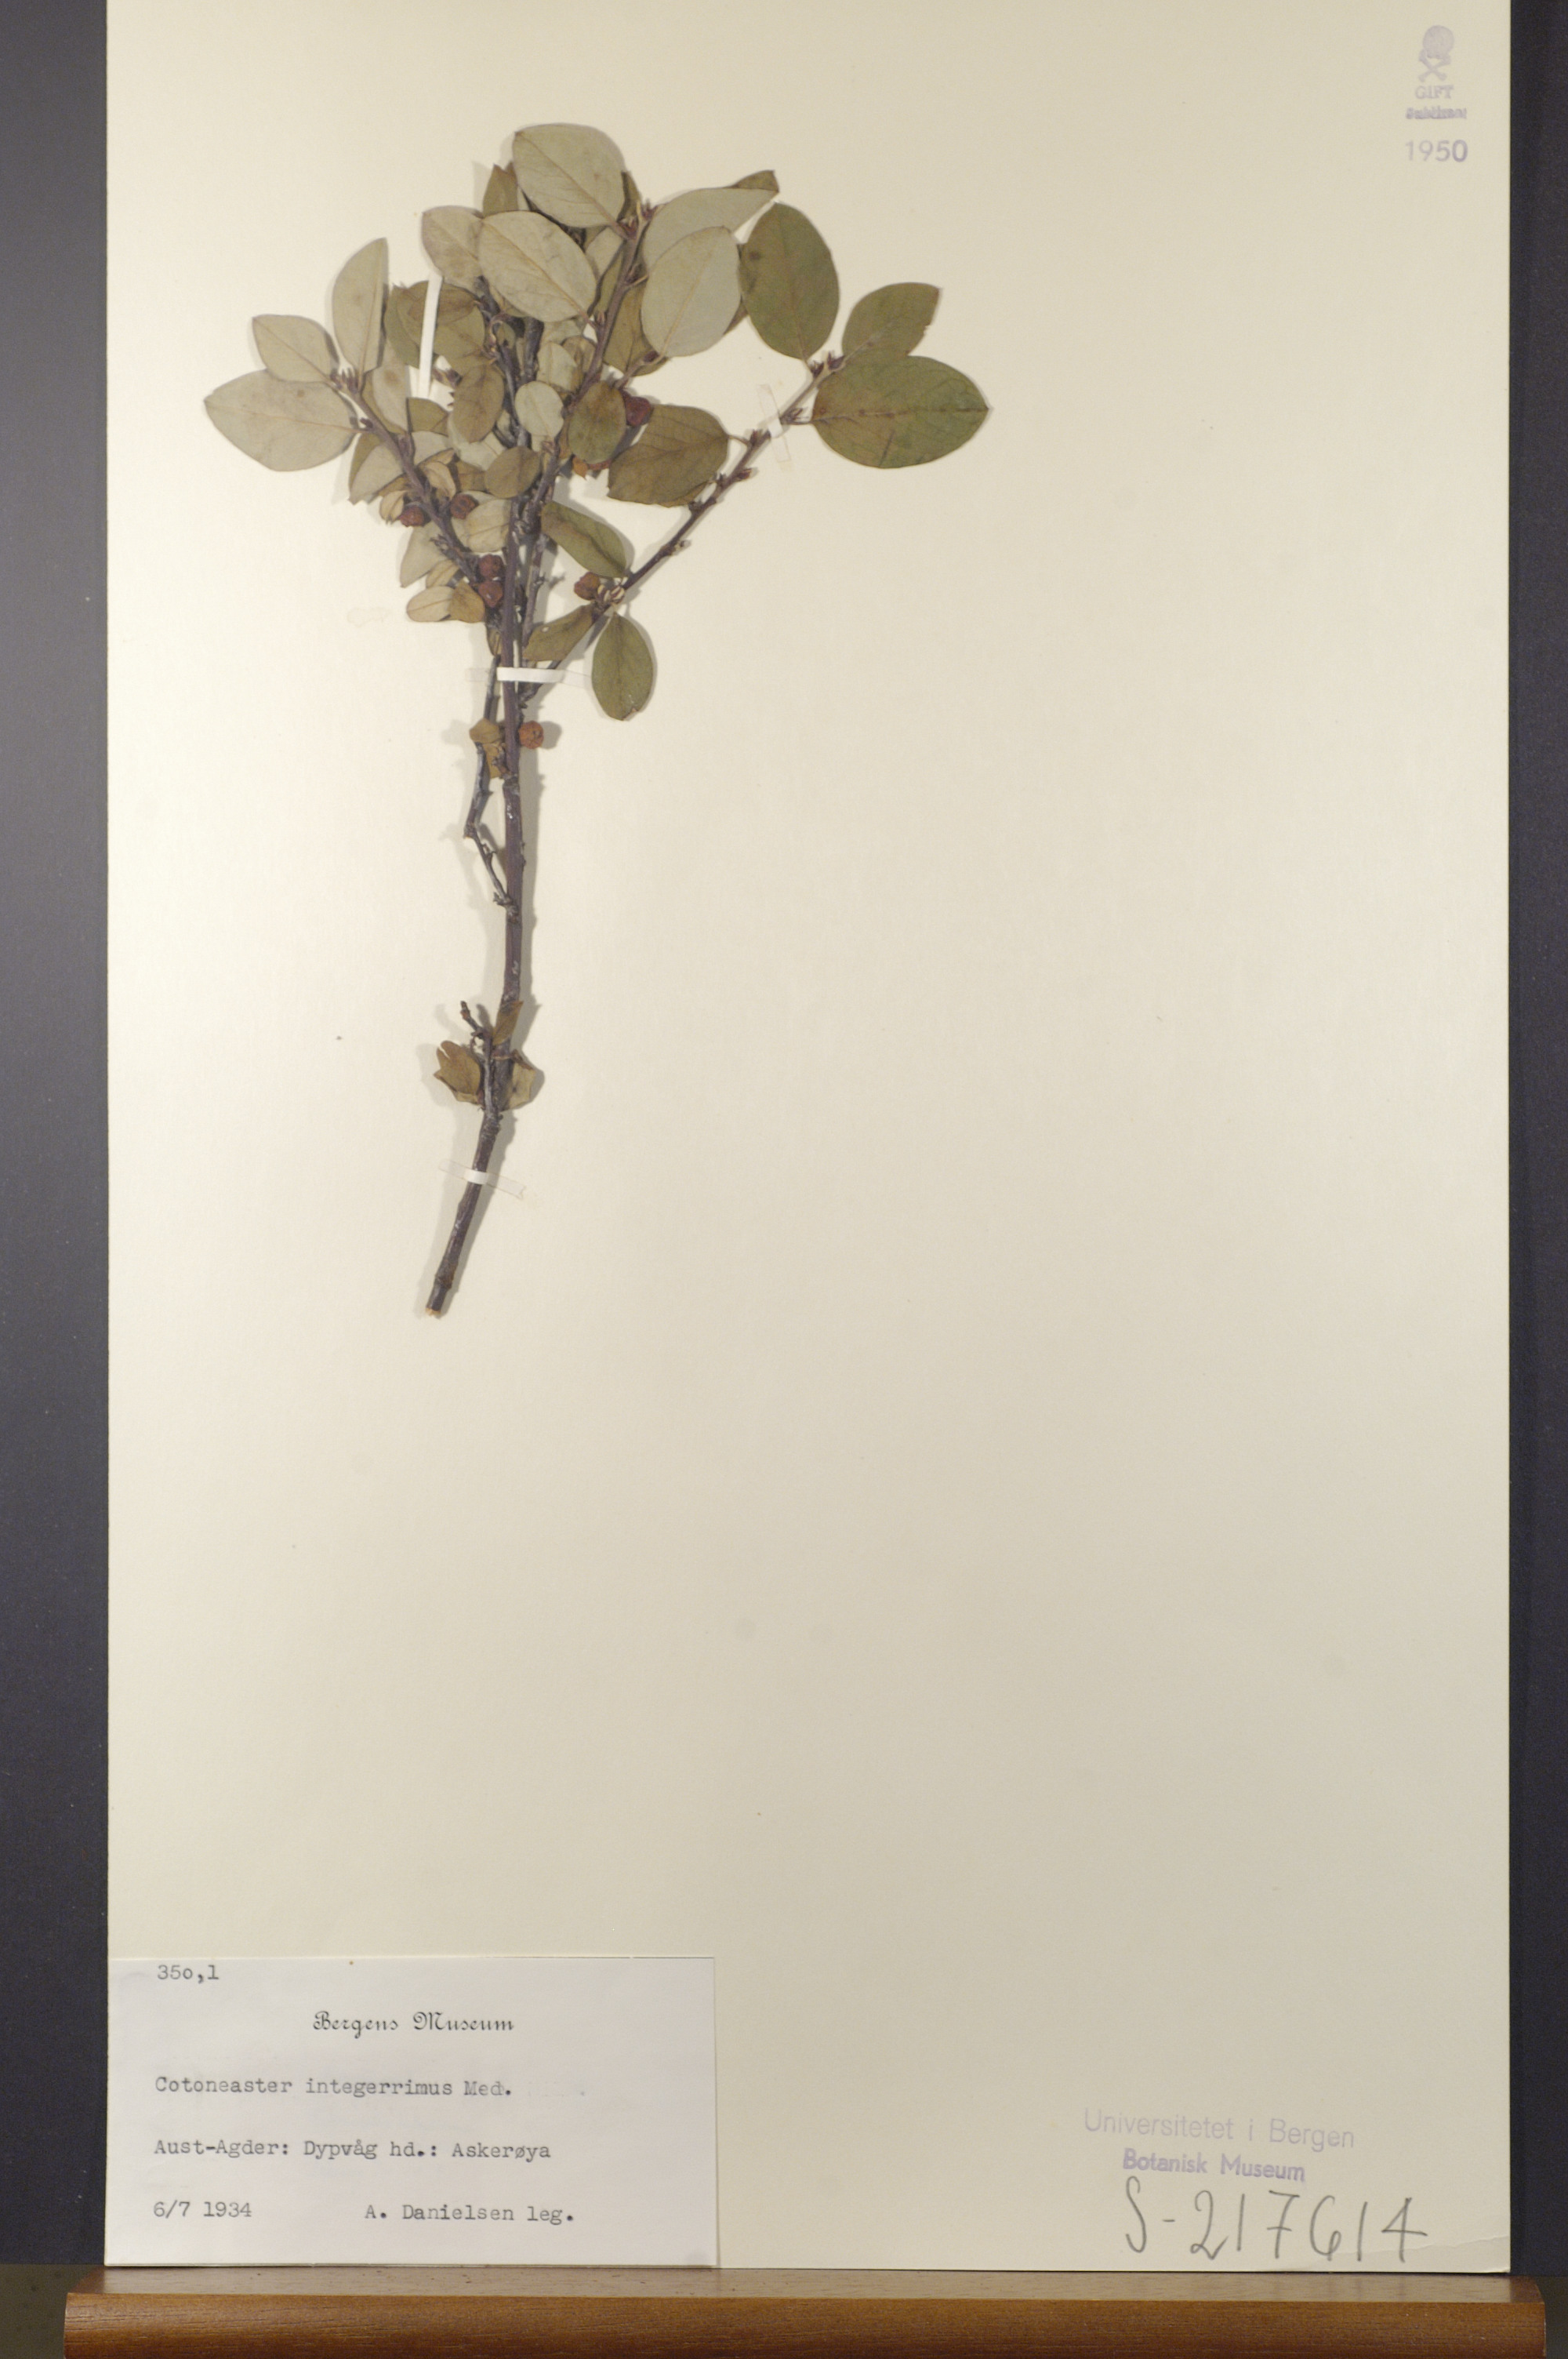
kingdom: Plantae
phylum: Tracheophyta
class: Magnoliopsida
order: Rosales
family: Rosaceae
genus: Cotoneaster
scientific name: Cotoneaster integerrimus
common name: Wild cotoneaster
